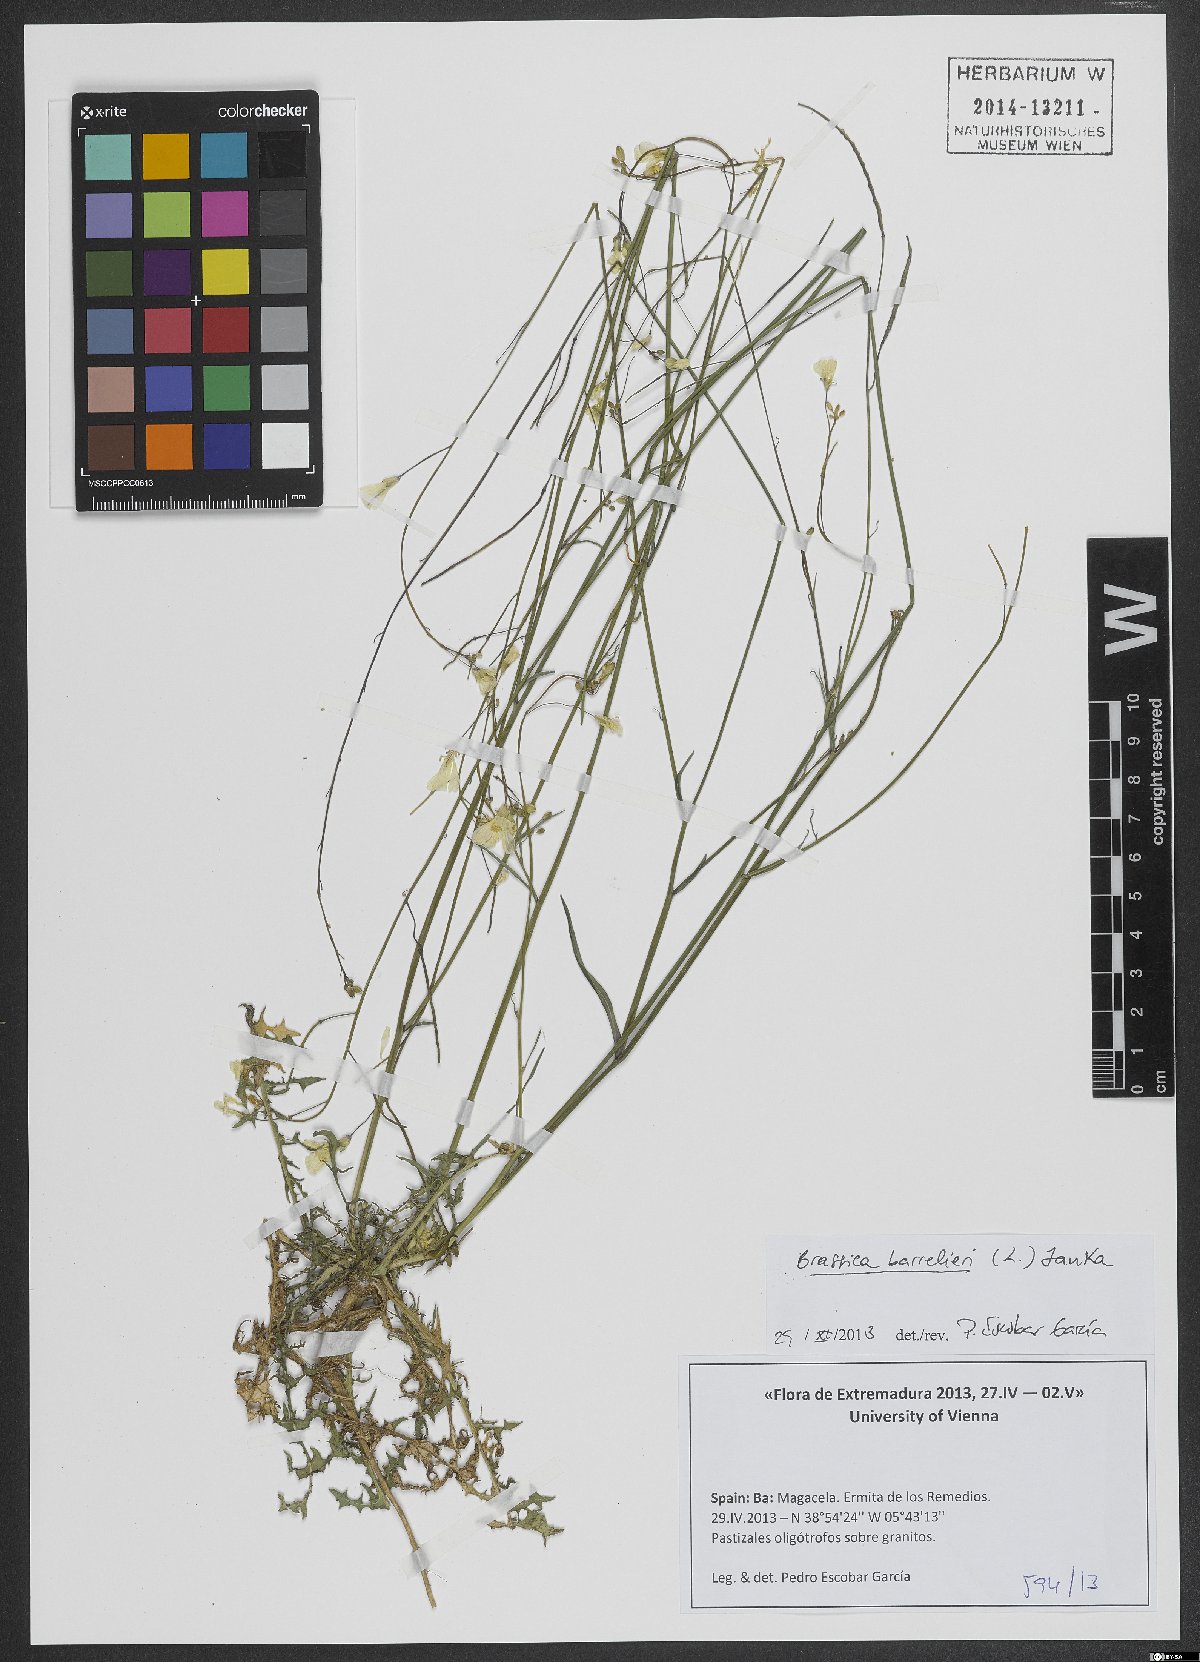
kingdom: Plantae
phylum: Tracheophyta
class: Magnoliopsida
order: Brassicales
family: Brassicaceae
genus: Brassica
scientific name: Brassica barrelieri
